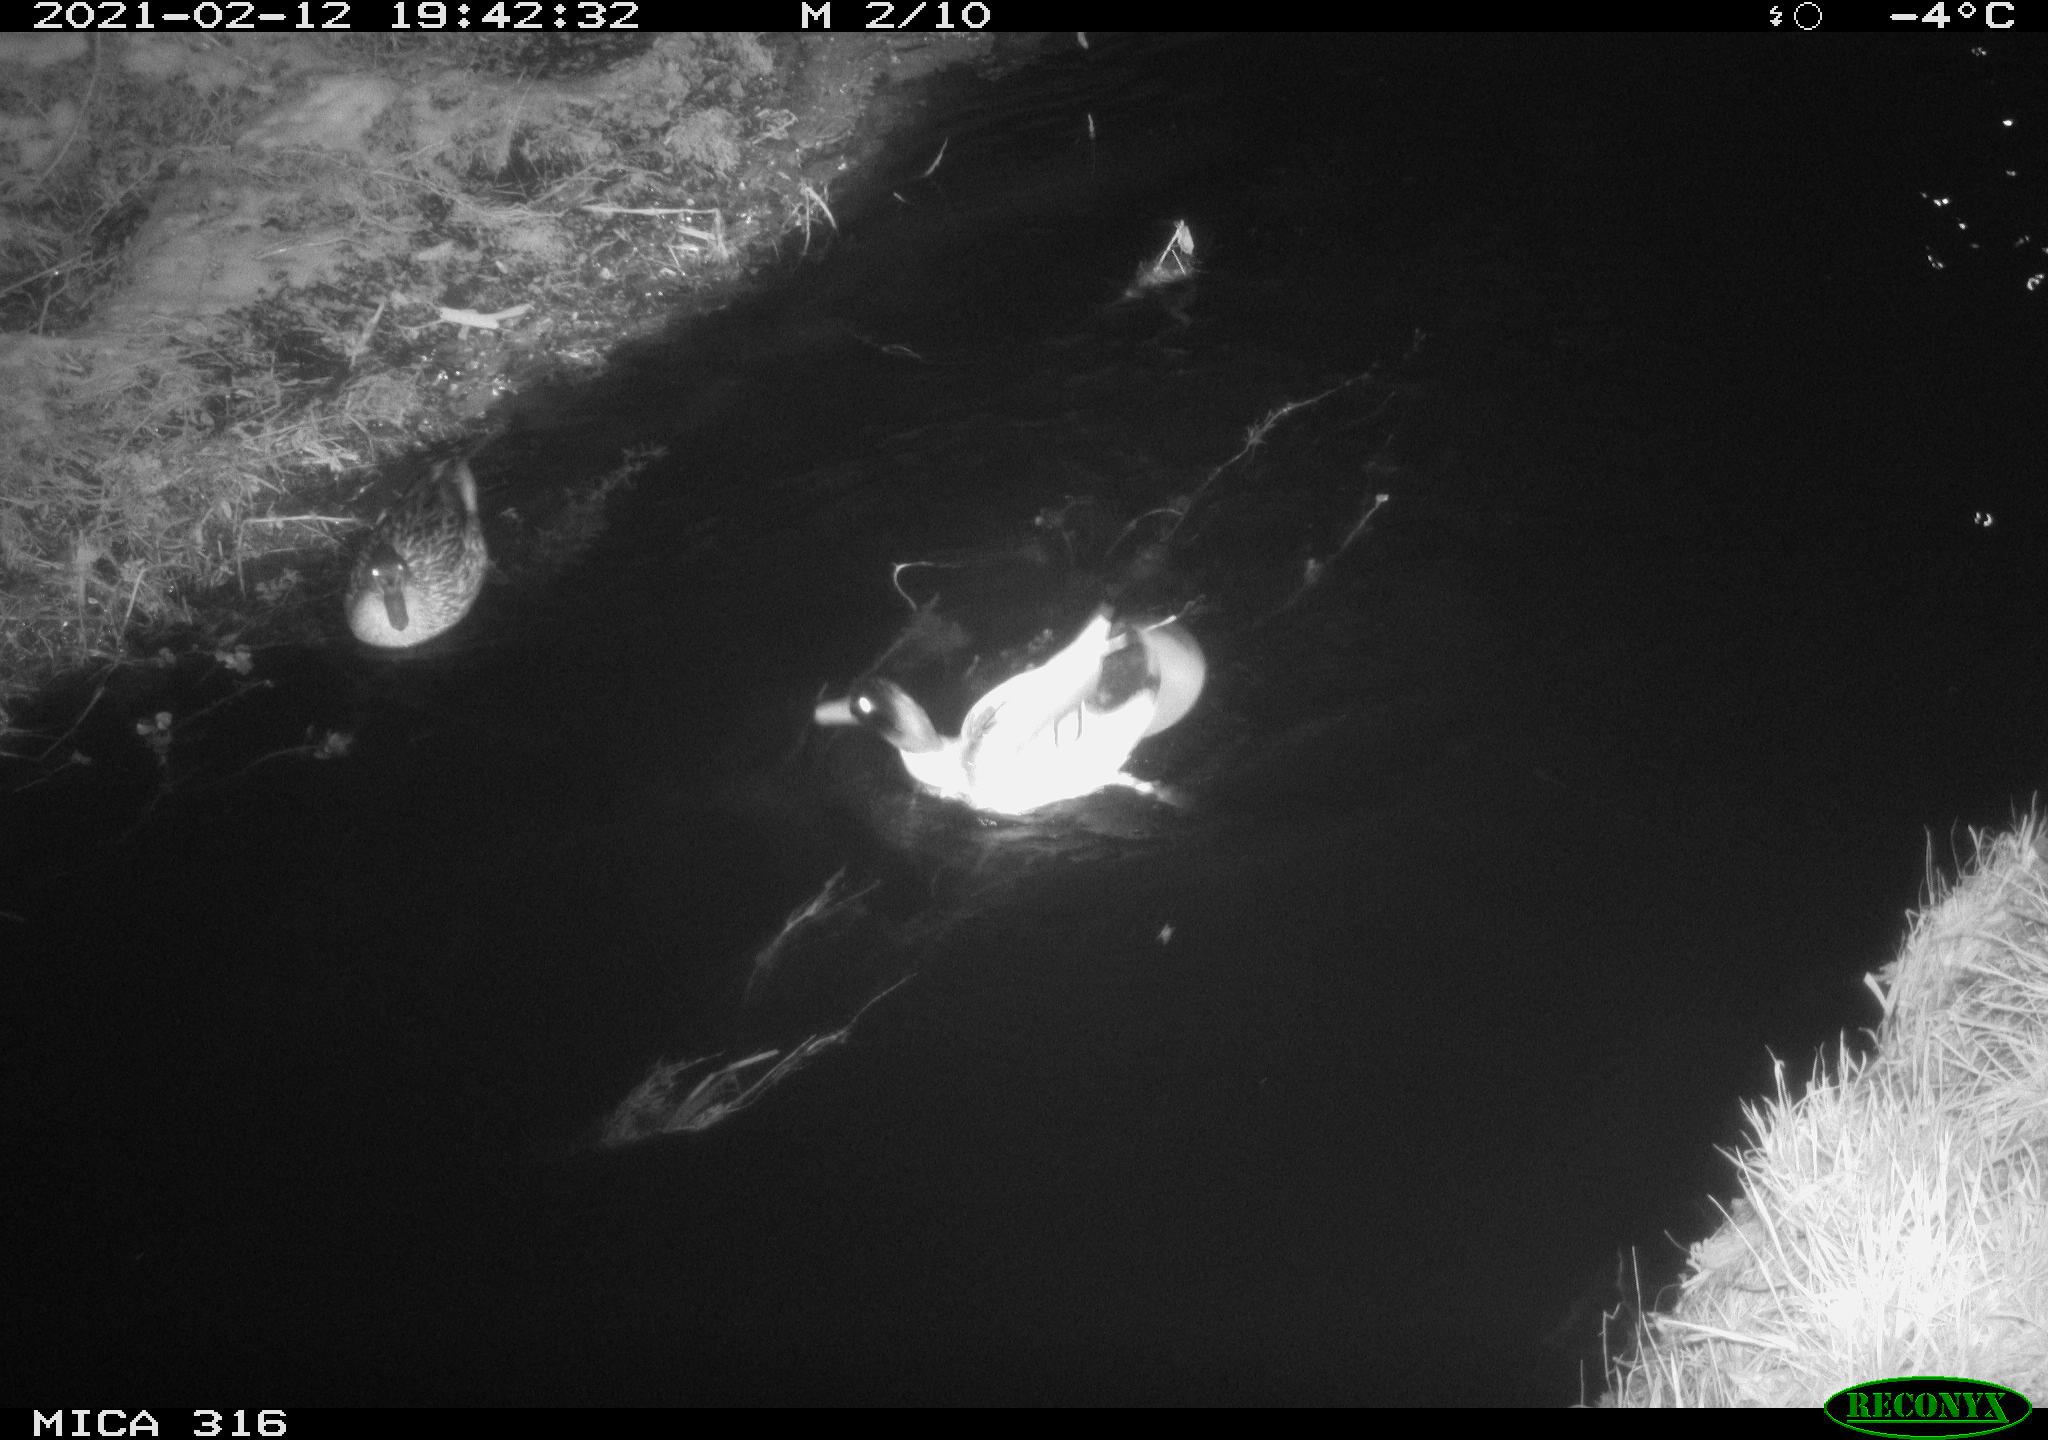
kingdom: Animalia
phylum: Chordata
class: Aves
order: Anseriformes
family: Anatidae
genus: Anas
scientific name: Anas platyrhynchos
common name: Mallard
